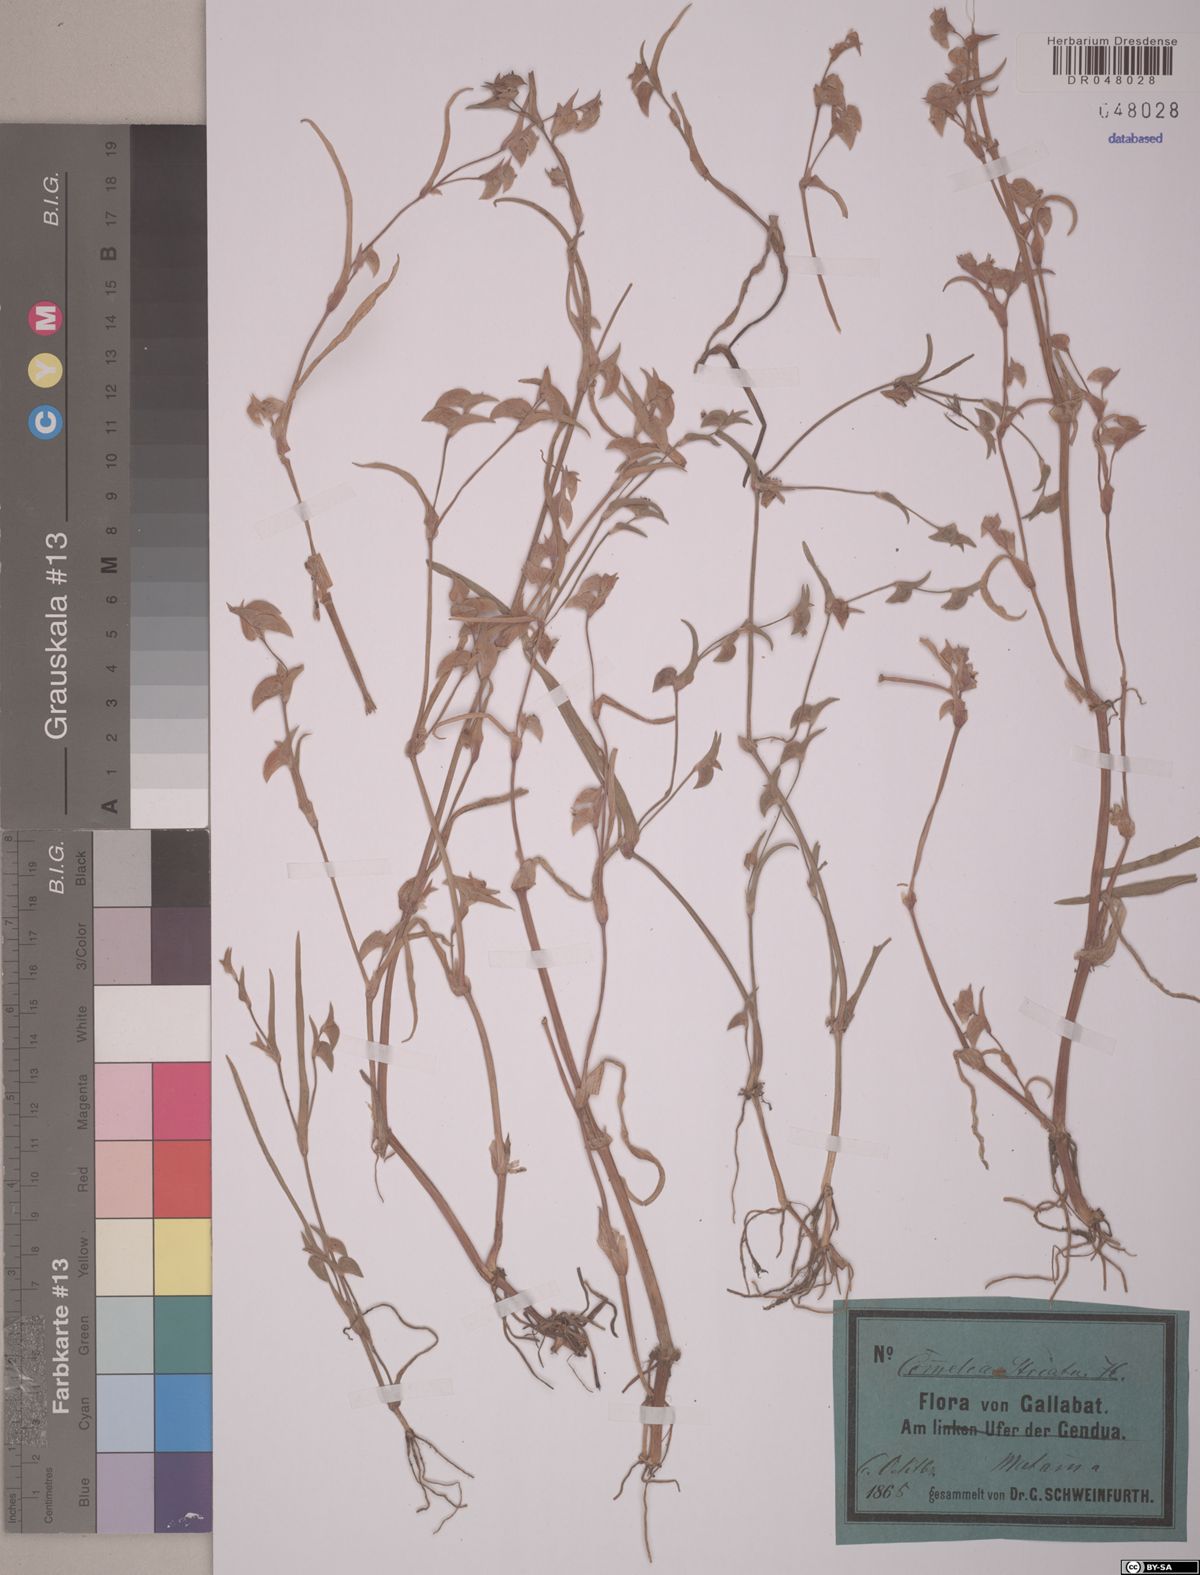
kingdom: Plantae
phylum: Tracheophyta
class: Liliopsida
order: Commelinales
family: Commelinaceae
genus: Commelina
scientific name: Commelina subulata
